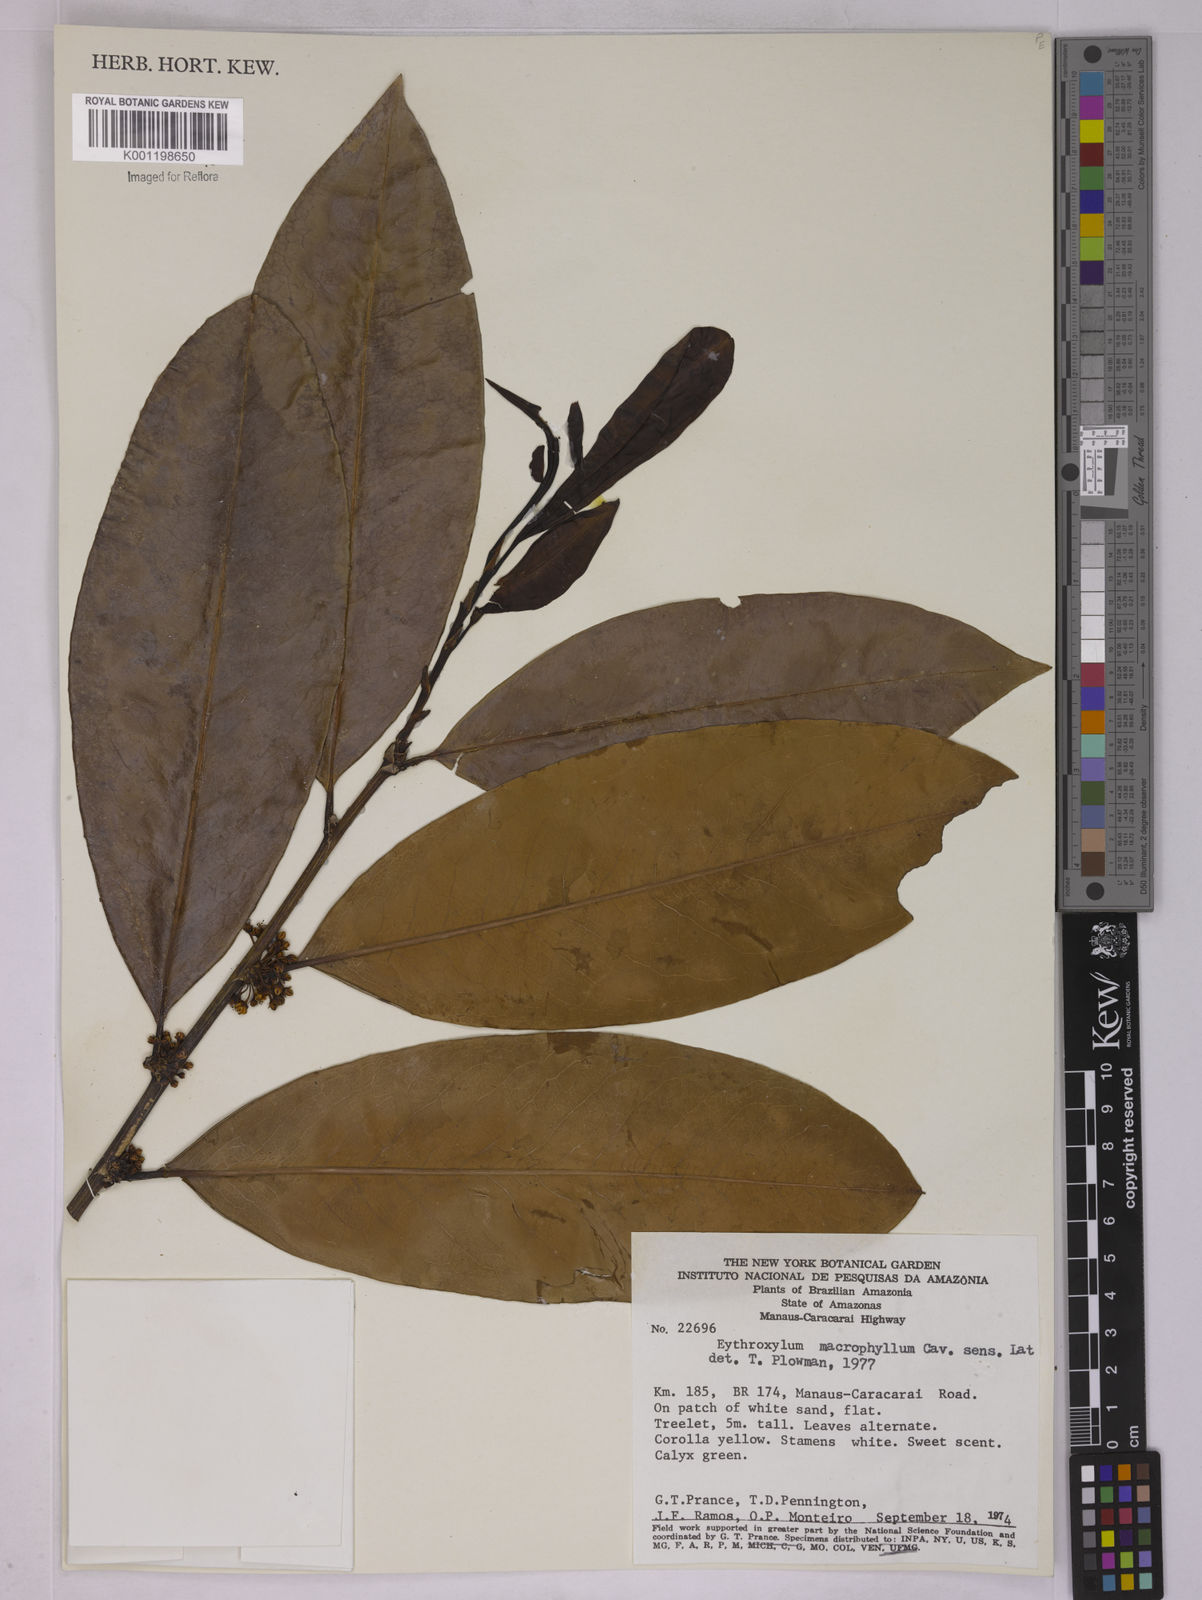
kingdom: Plantae
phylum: Tracheophyta
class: Magnoliopsida
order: Malpighiales
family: Erythroxylaceae
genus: Erythroxylum
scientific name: Erythroxylum macrophyllum
